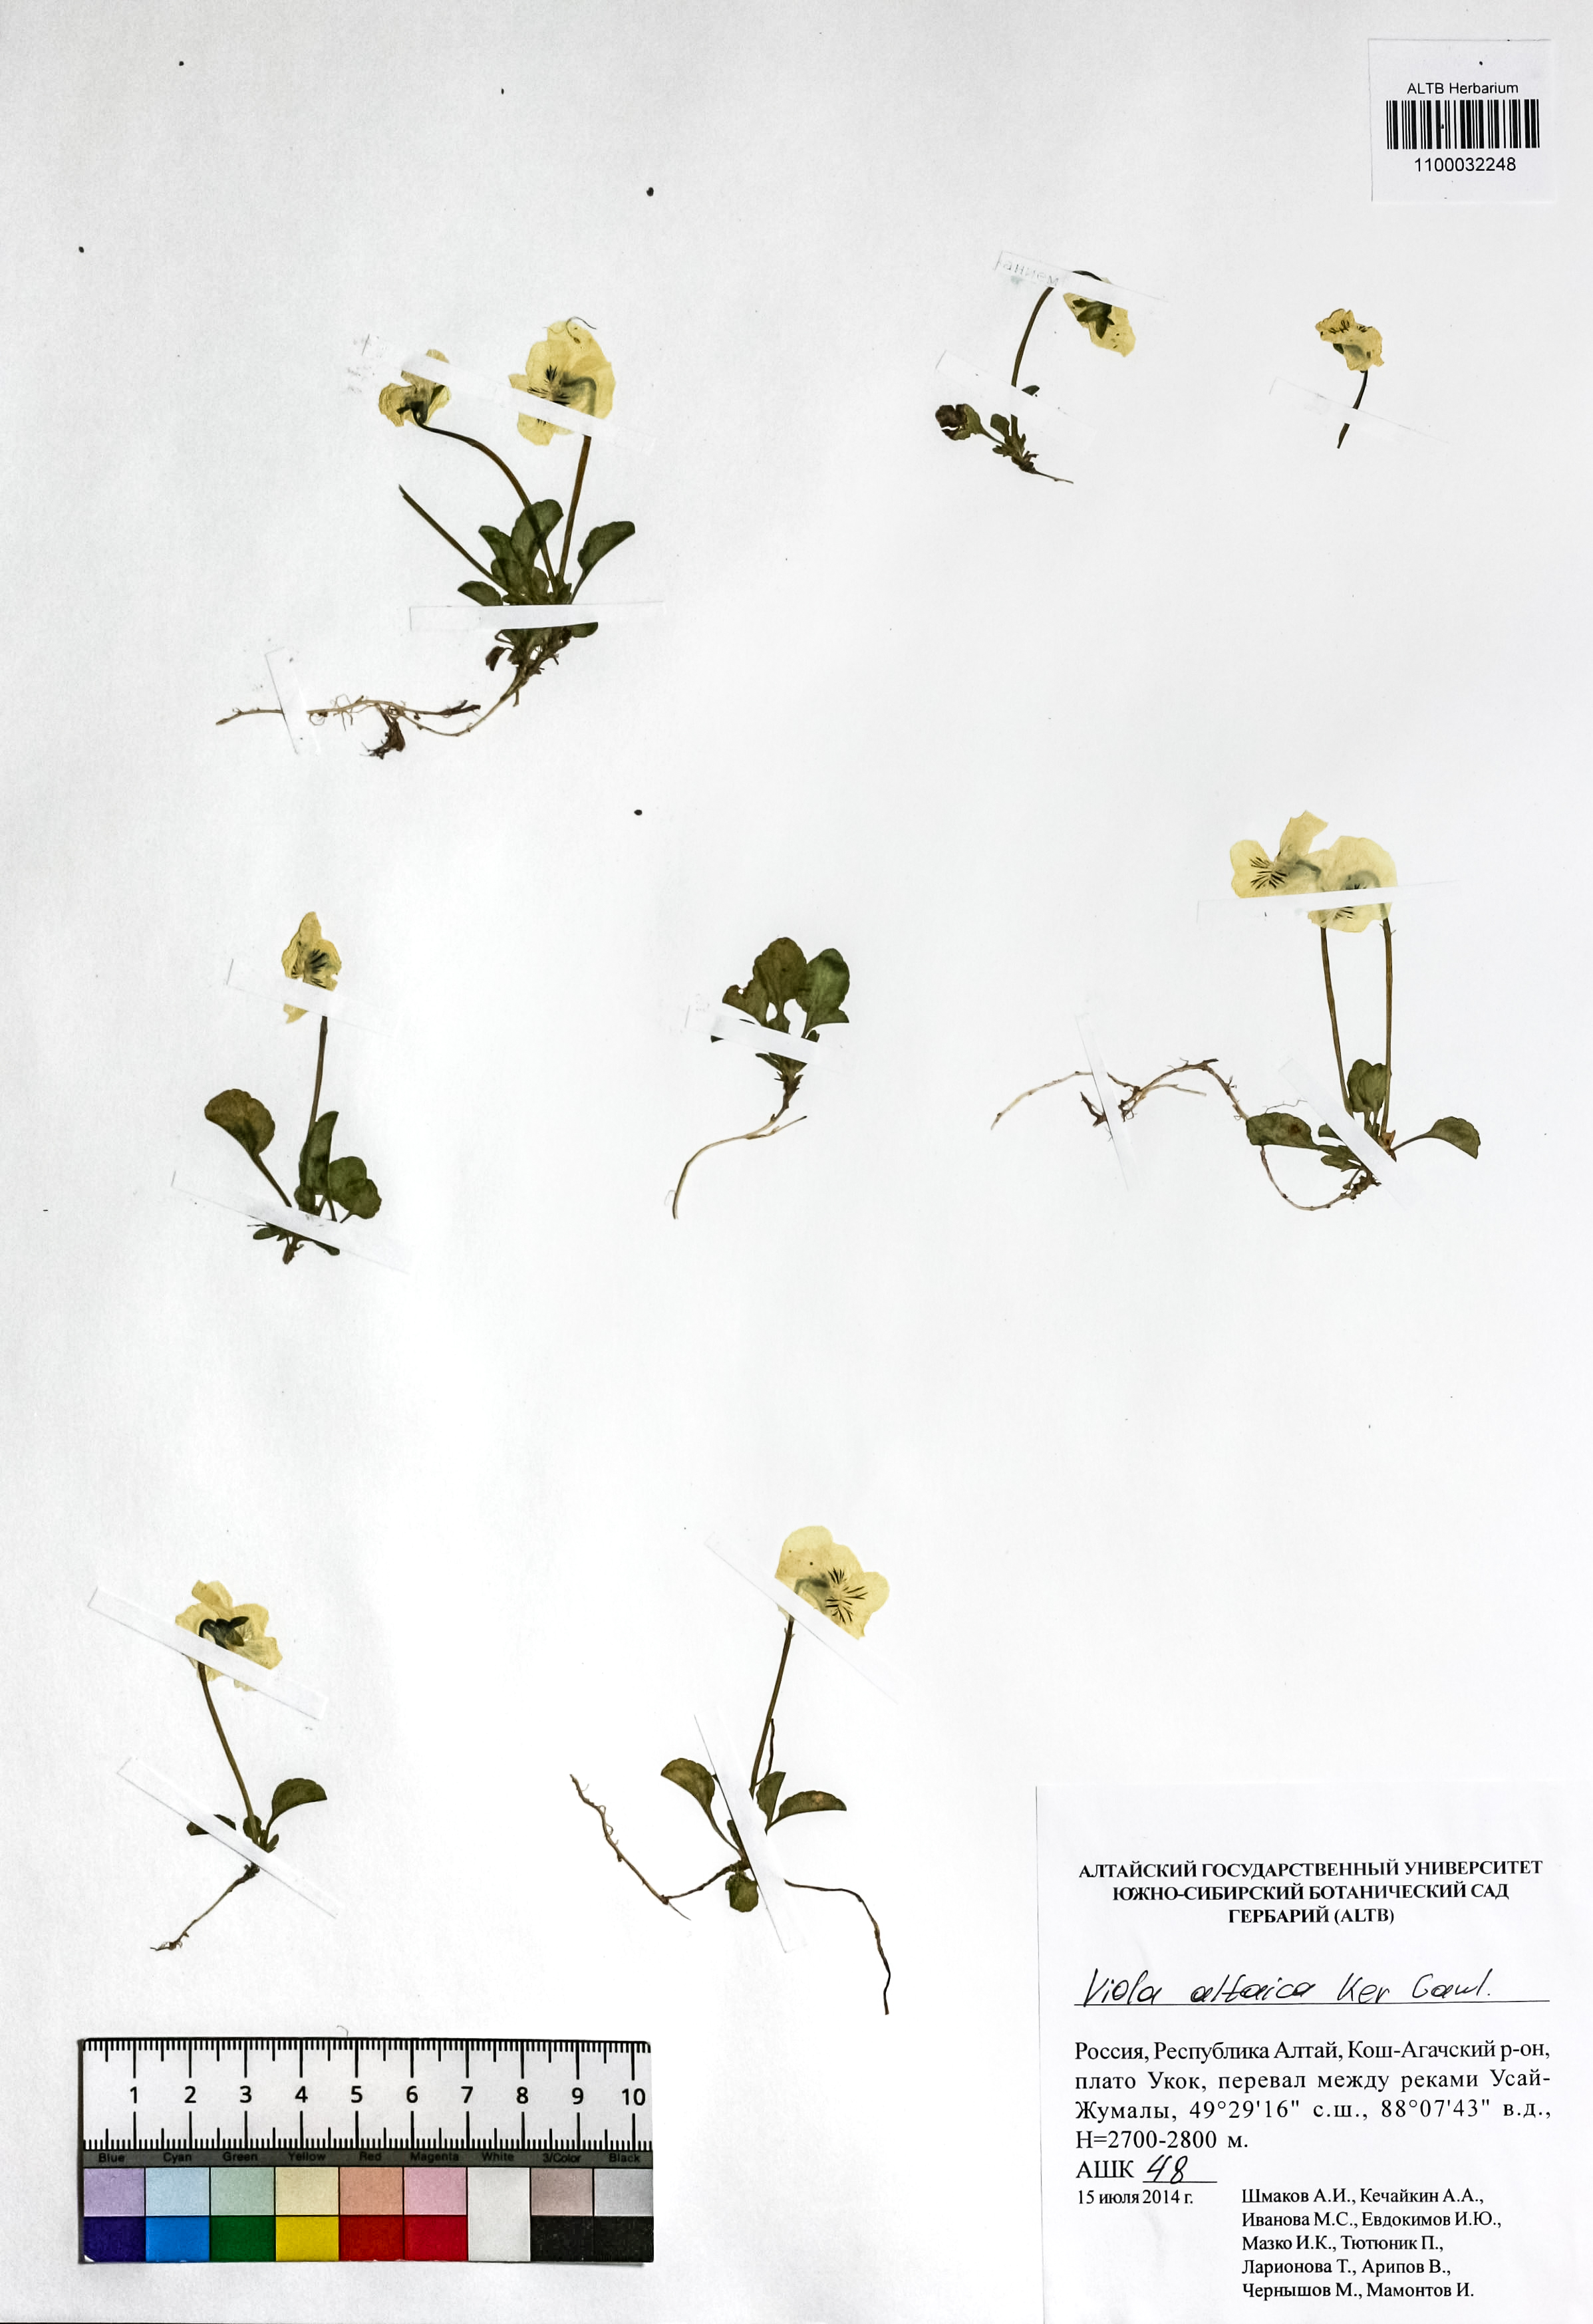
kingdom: Plantae
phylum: Tracheophyta
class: Magnoliopsida
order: Malpighiales
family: Violaceae
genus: Viola
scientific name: Viola altaica
